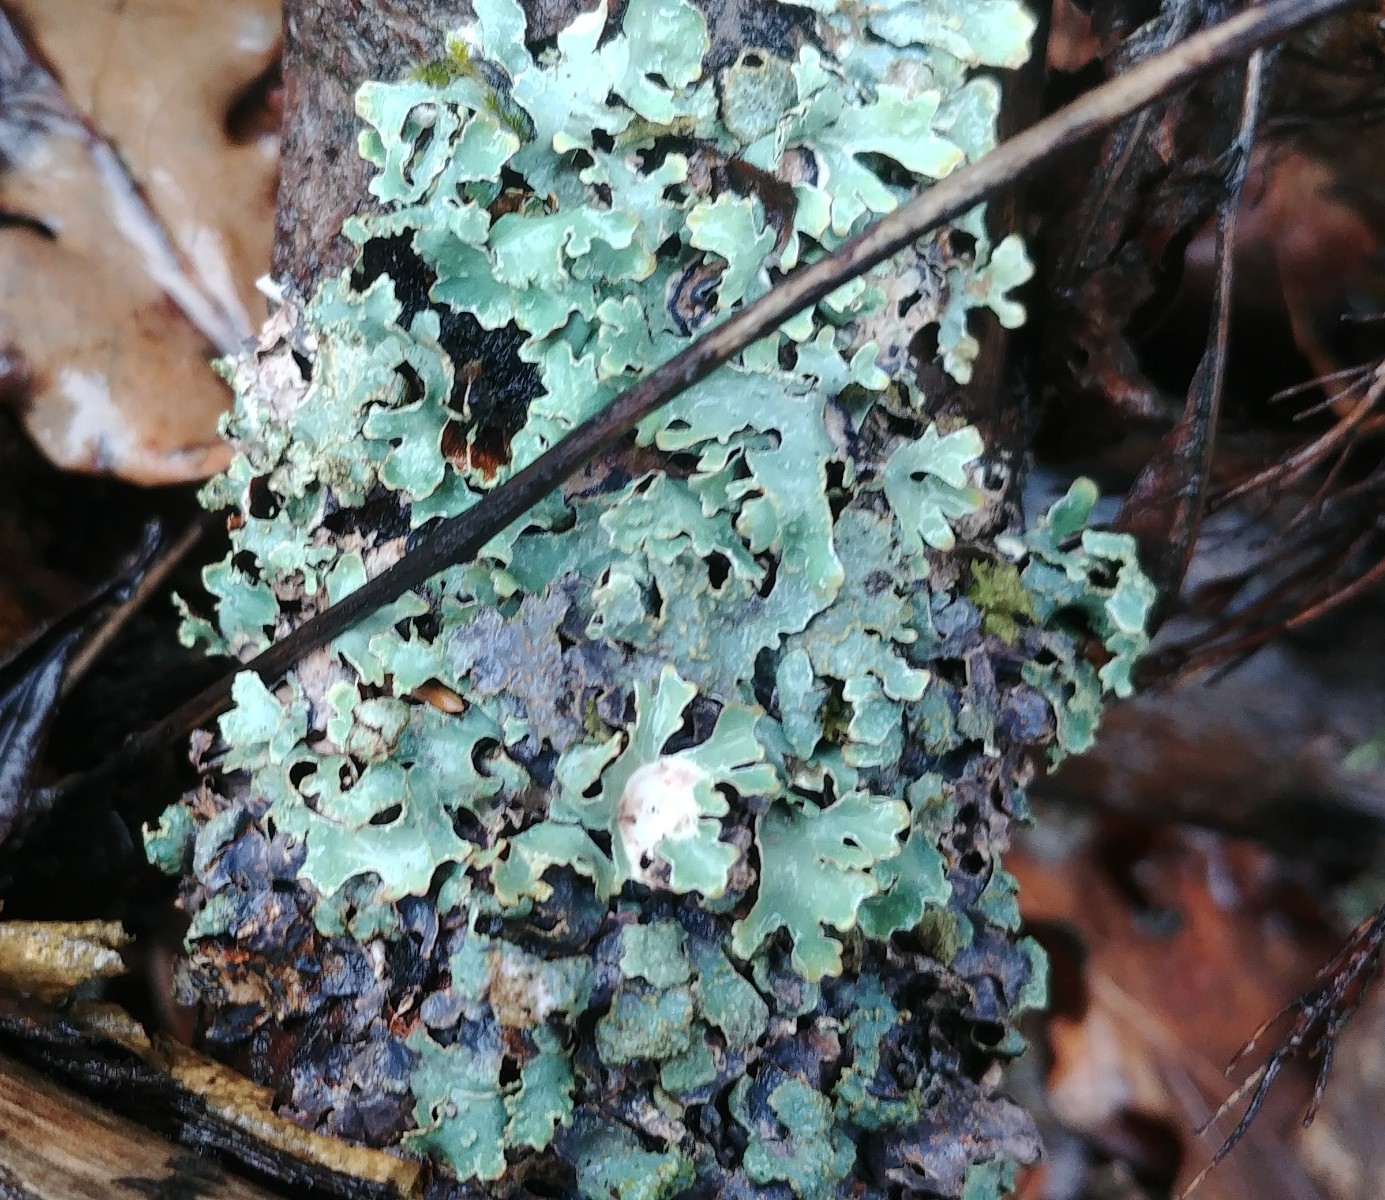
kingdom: Fungi
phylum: Ascomycota
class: Lecanoromycetes
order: Lecanorales
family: Parmeliaceae
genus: Parmelia
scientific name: Parmelia sulcata
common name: rynket skållav
